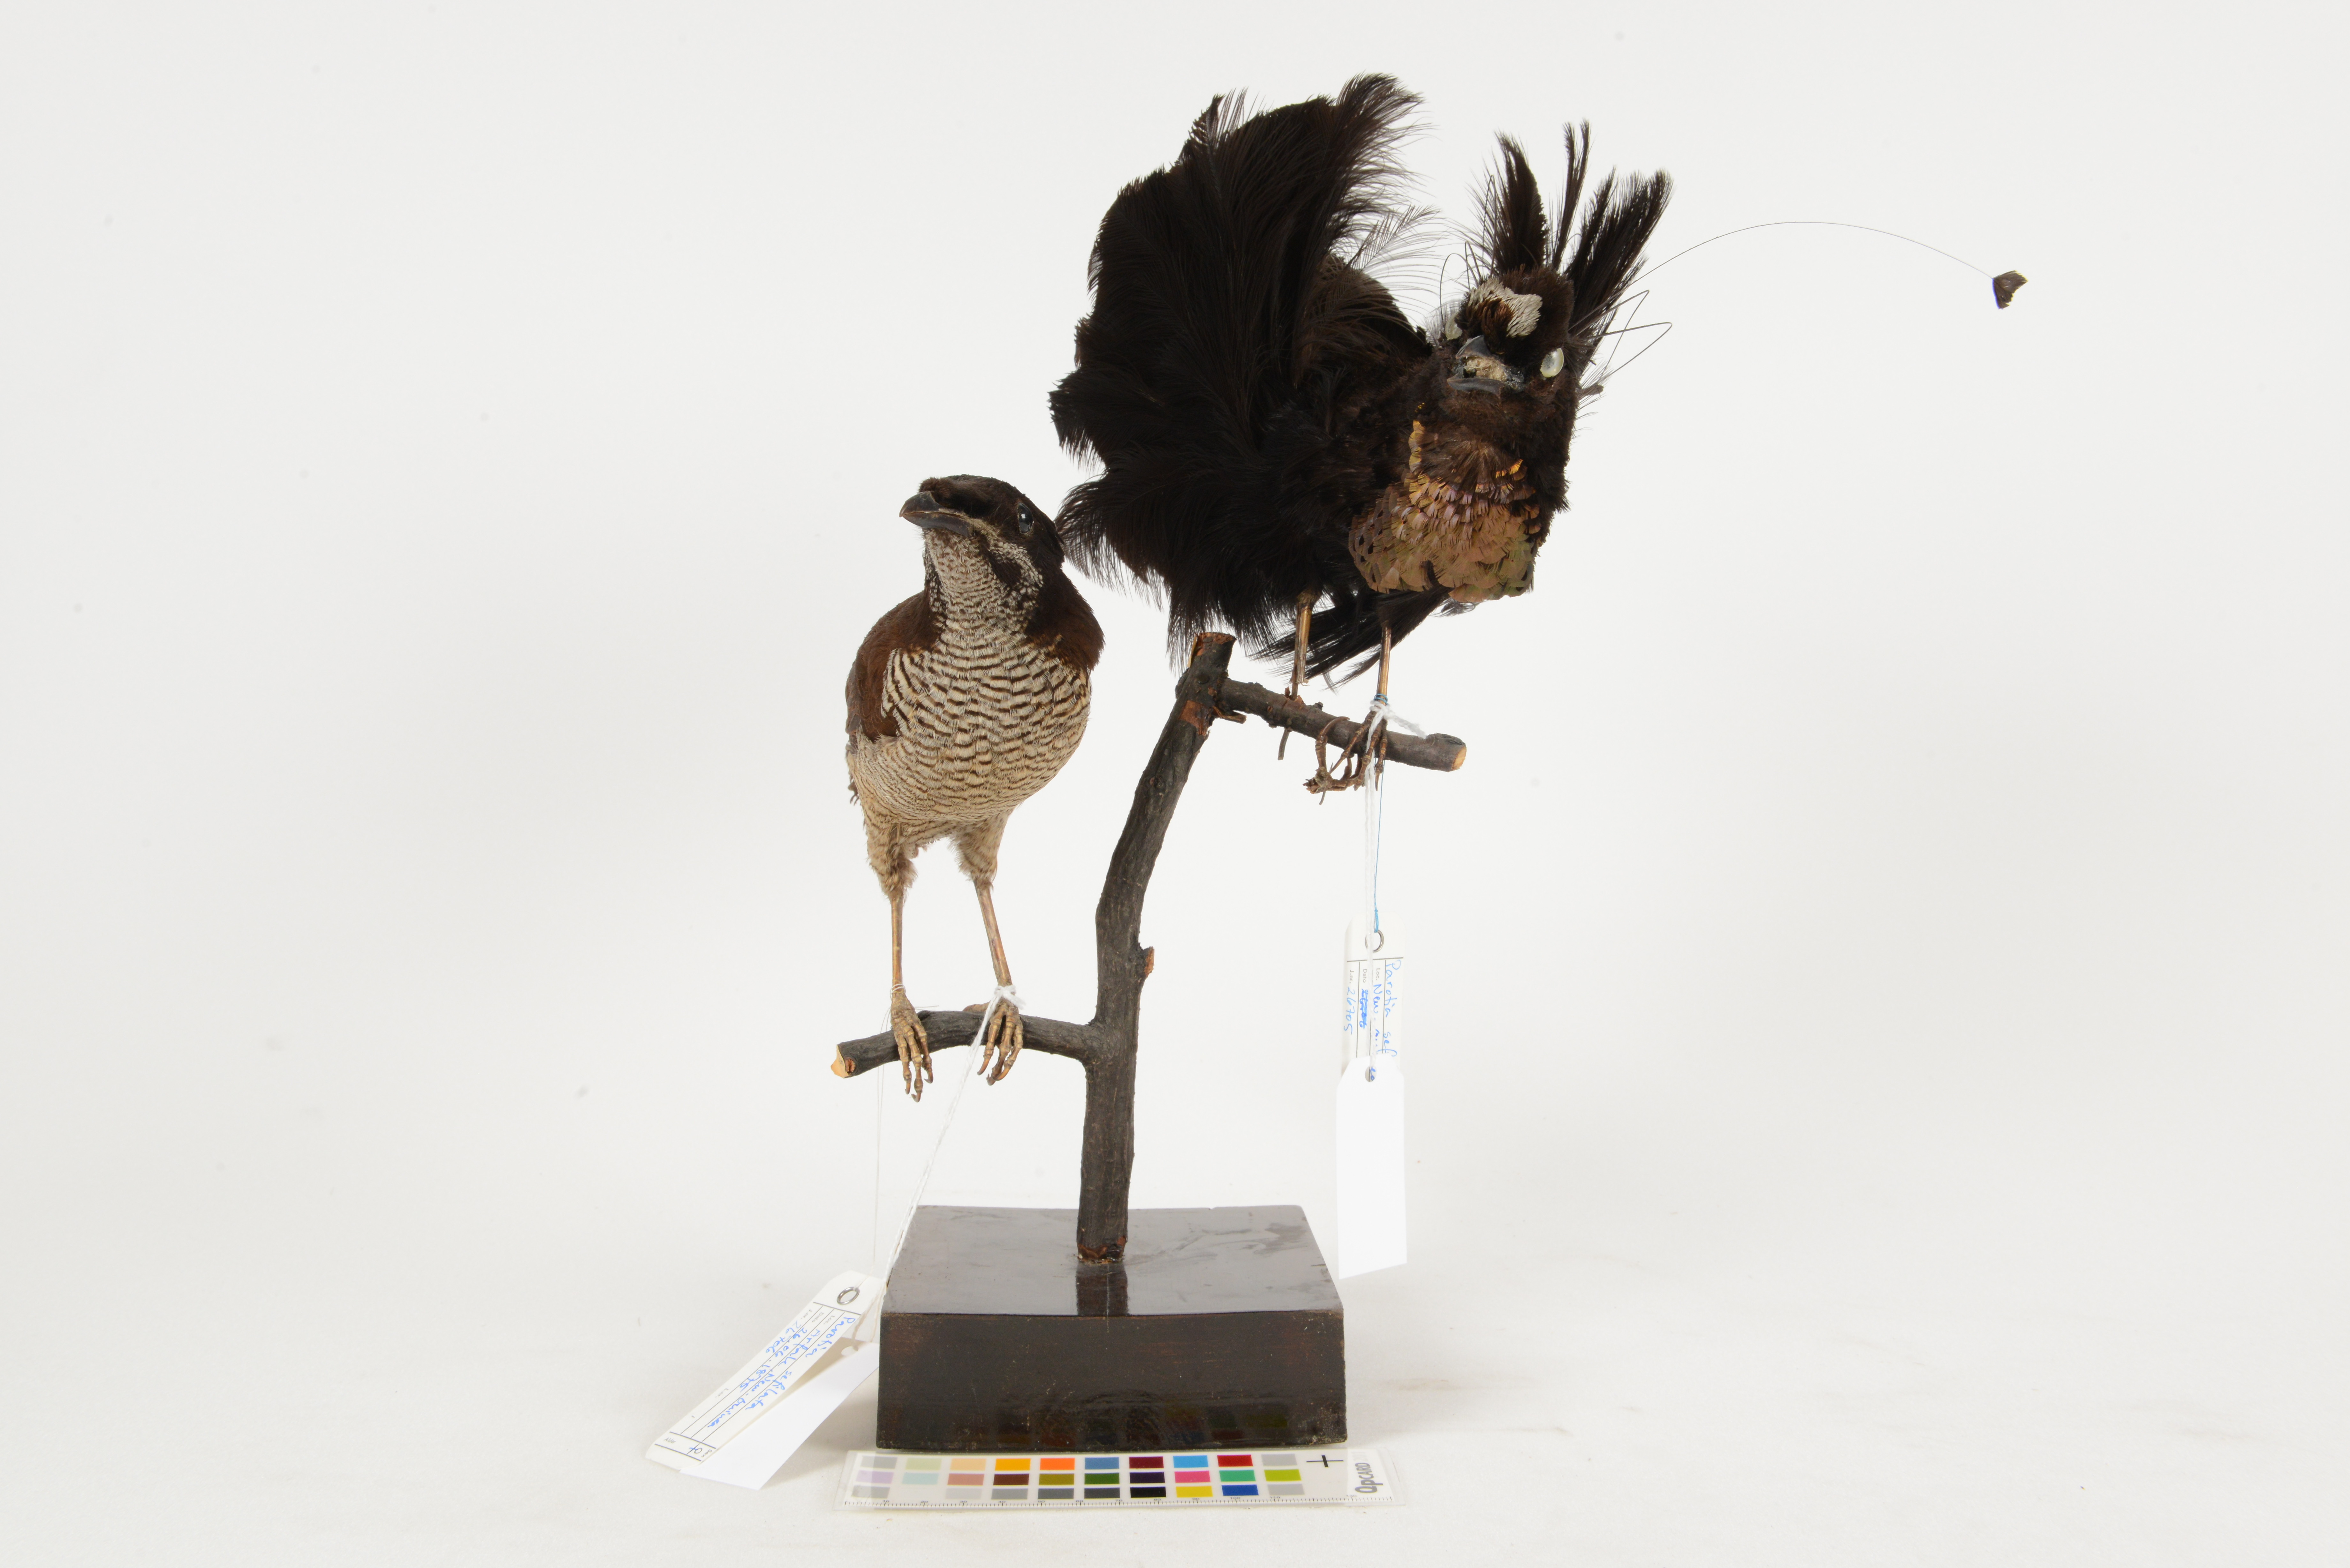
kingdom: Animalia
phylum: Chordata
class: Aves
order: Passeriformes
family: Paradisaeidae
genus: Parotia
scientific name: Parotia sefilata
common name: Western parotia
